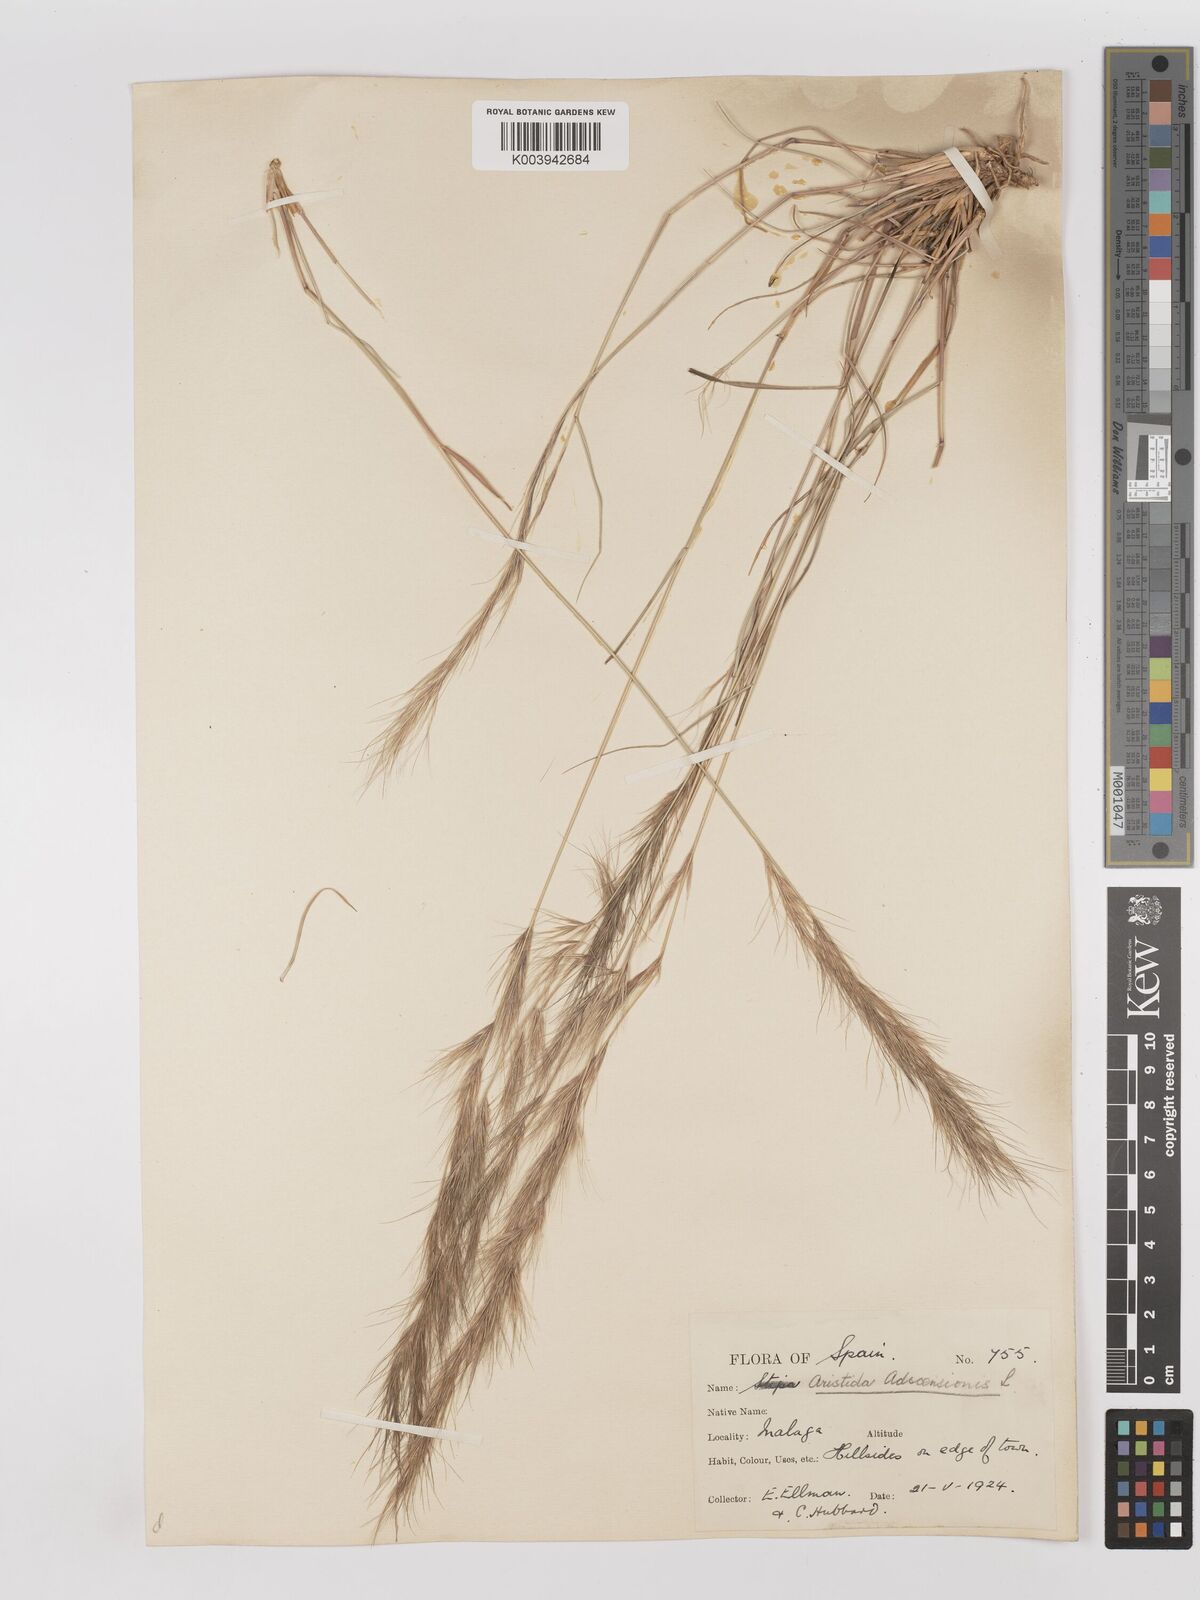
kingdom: Plantae
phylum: Tracheophyta
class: Liliopsida
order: Poales
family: Poaceae
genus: Aristida
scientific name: Aristida adscensionis
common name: Sixweeks threeawn
